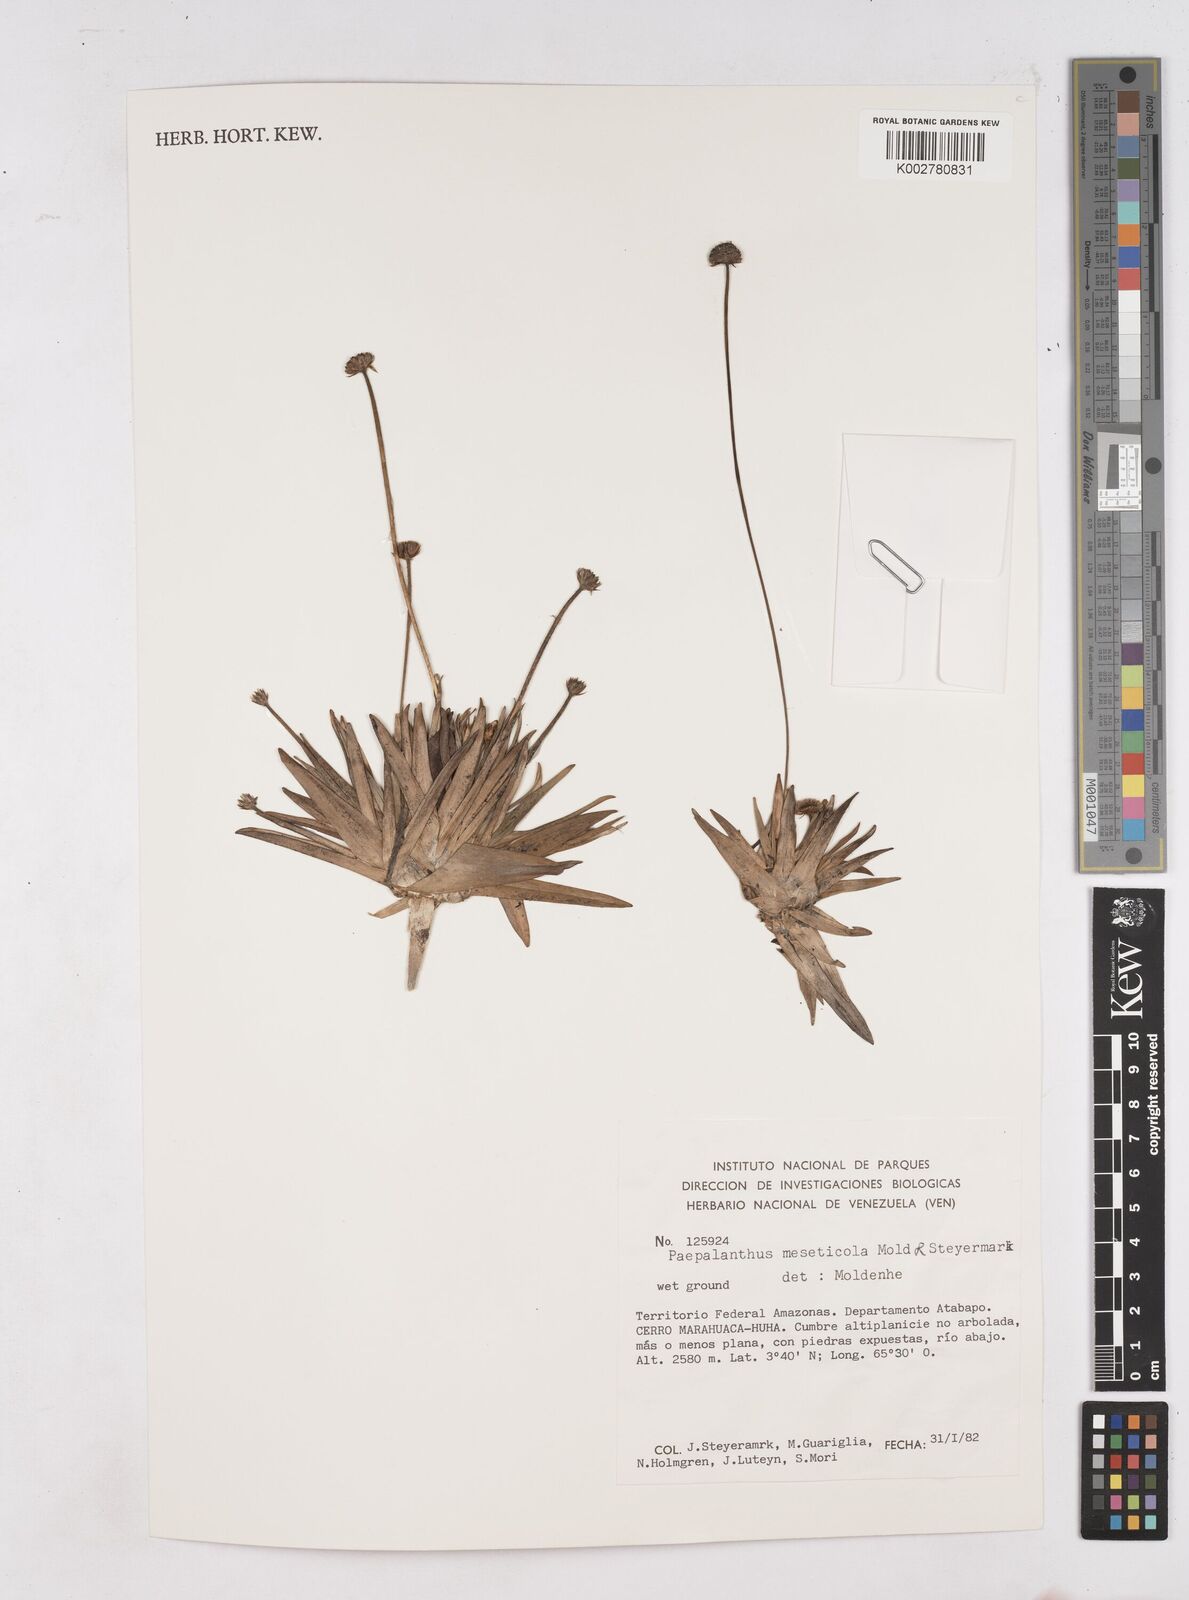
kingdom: Plantae
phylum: Tracheophyta
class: Liliopsida
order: Poales
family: Eriocaulaceae
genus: Leiothrix
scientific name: Leiothrix flavescens
